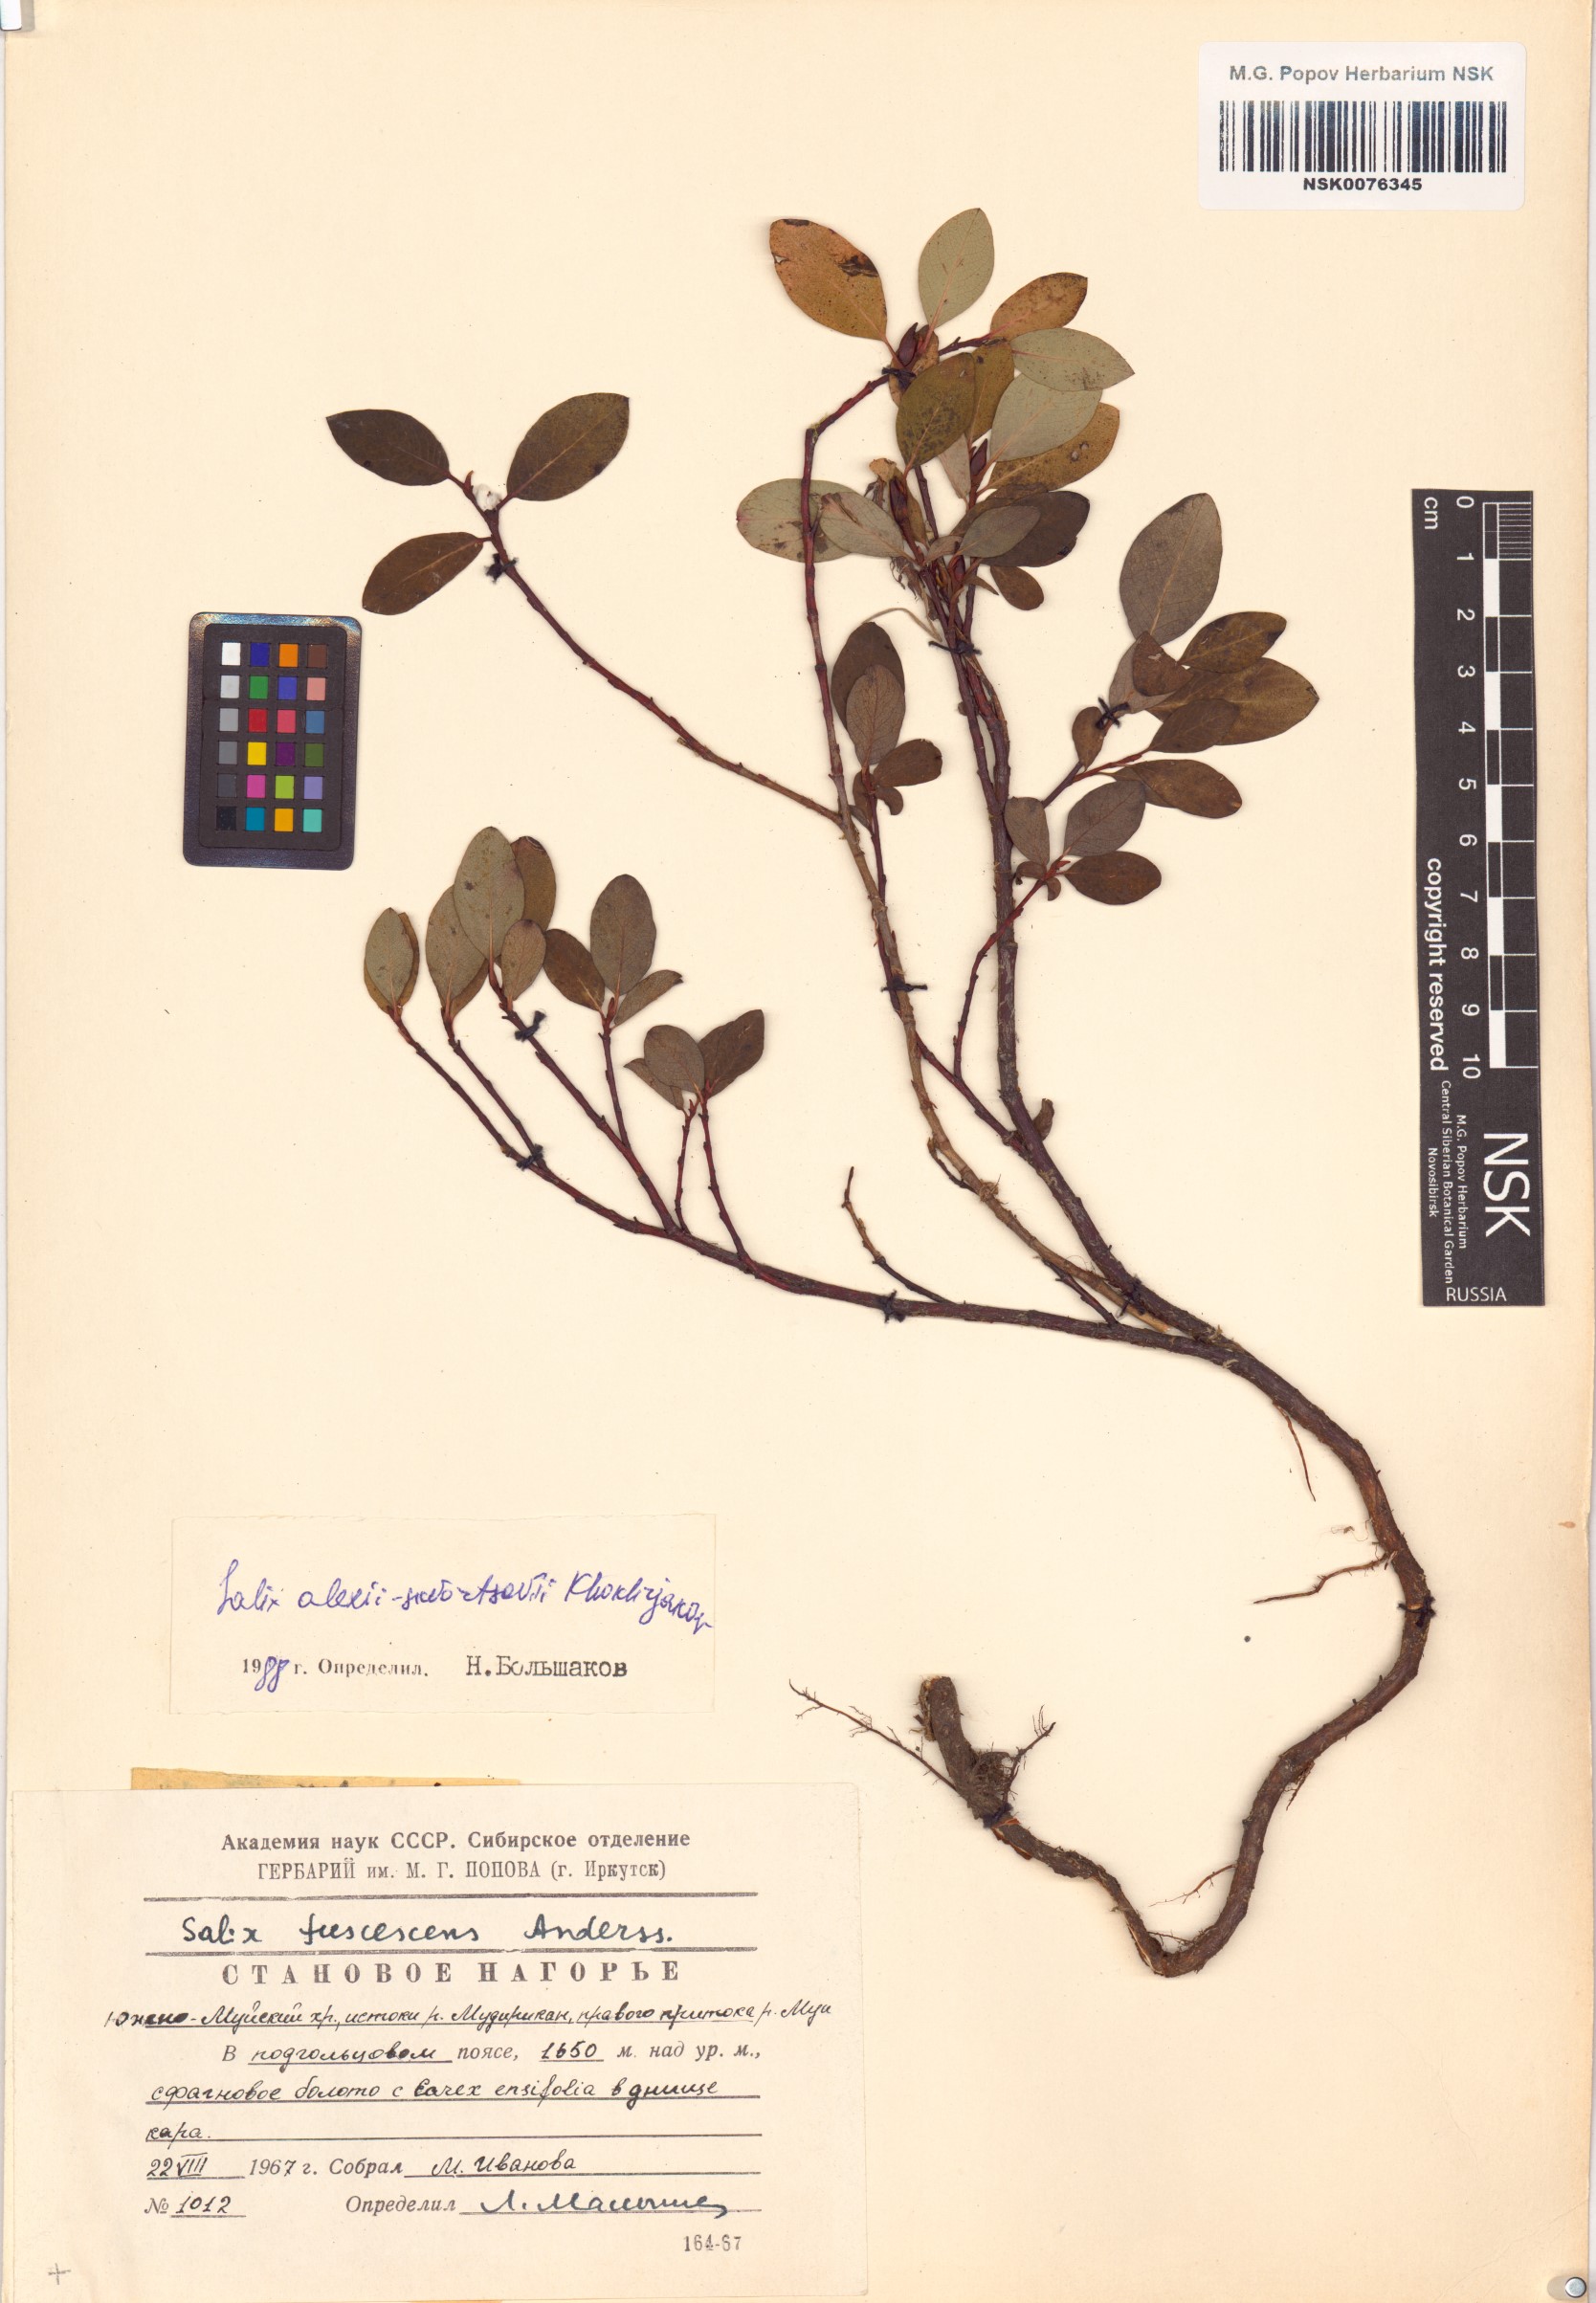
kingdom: Plantae
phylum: Tracheophyta
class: Magnoliopsida
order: Malpighiales
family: Salicaceae
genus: Salix
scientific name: Salix alexii-skvortzovii
